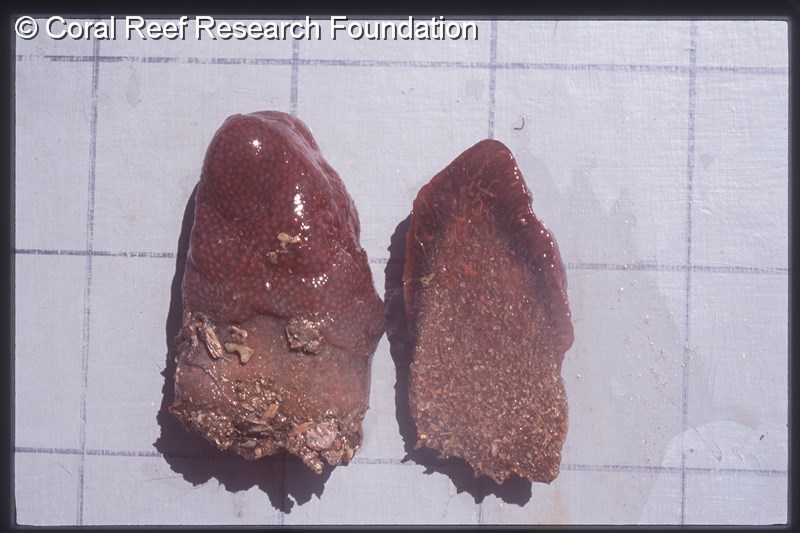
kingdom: Animalia
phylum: Chordata
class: Ascidiacea
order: Aplousobranchia
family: Pseudodistomidae
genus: Pseudodistoma
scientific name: Pseudodistoma
